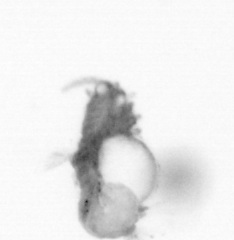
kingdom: Animalia
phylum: Annelida
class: Polychaeta
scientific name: Polychaeta
